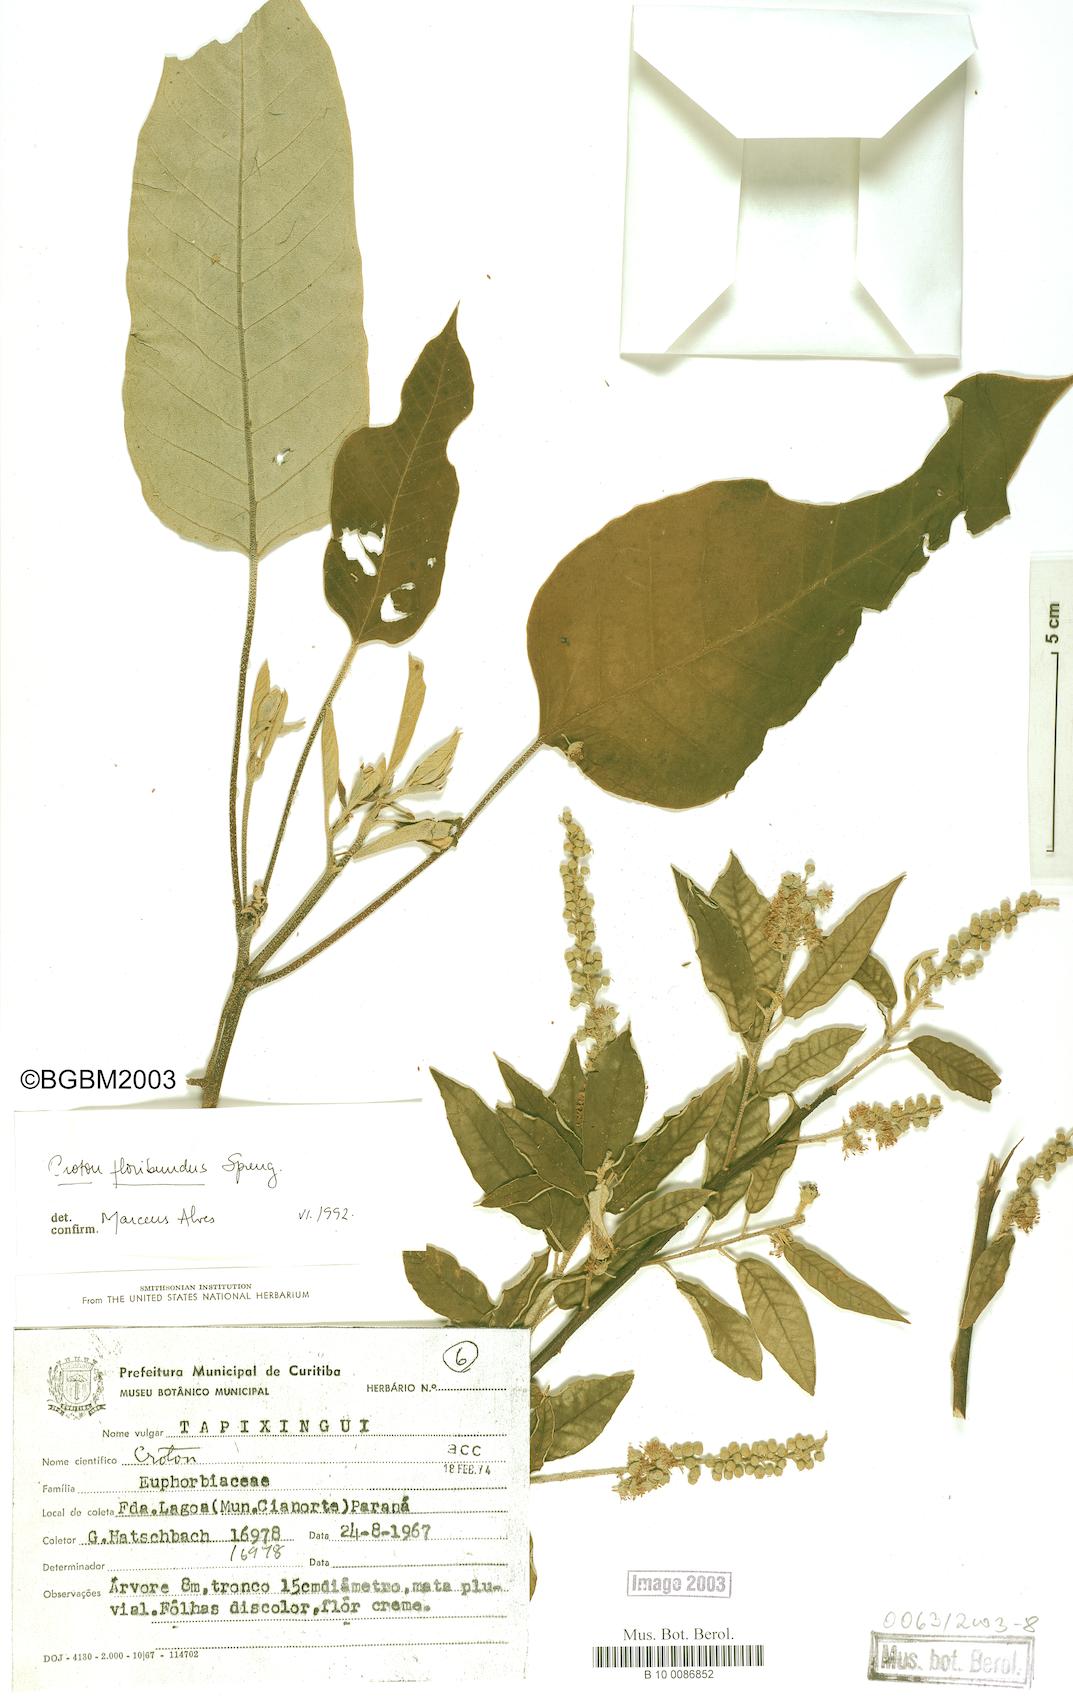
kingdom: Plantae
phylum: Tracheophyta
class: Magnoliopsida
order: Malpighiales
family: Euphorbiaceae
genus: Croton
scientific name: Croton floribundus
